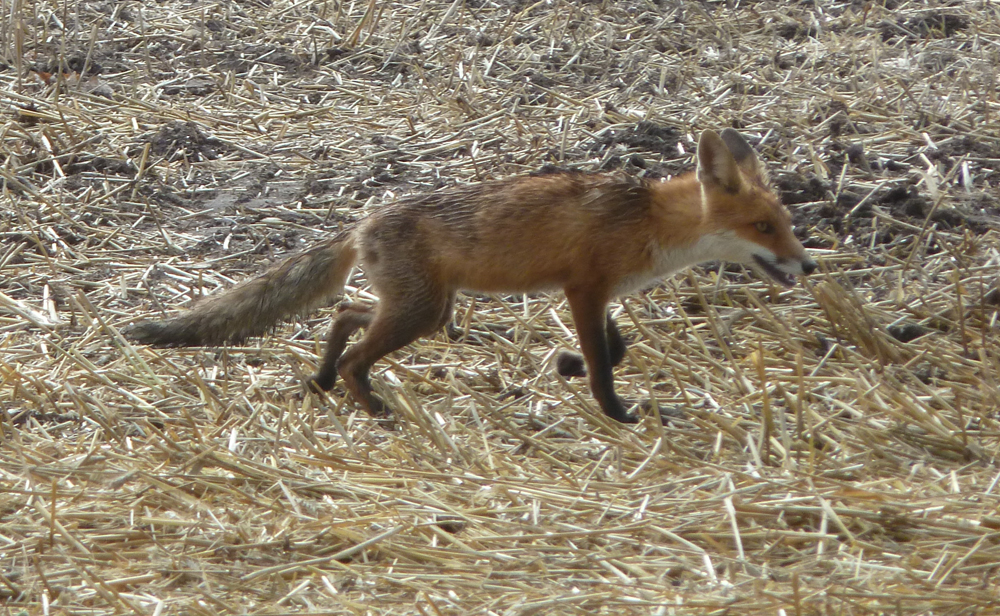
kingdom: Animalia
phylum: Chordata
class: Mammalia
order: Carnivora
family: Canidae
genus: Vulpes
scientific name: Vulpes vulpes
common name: Red fox
